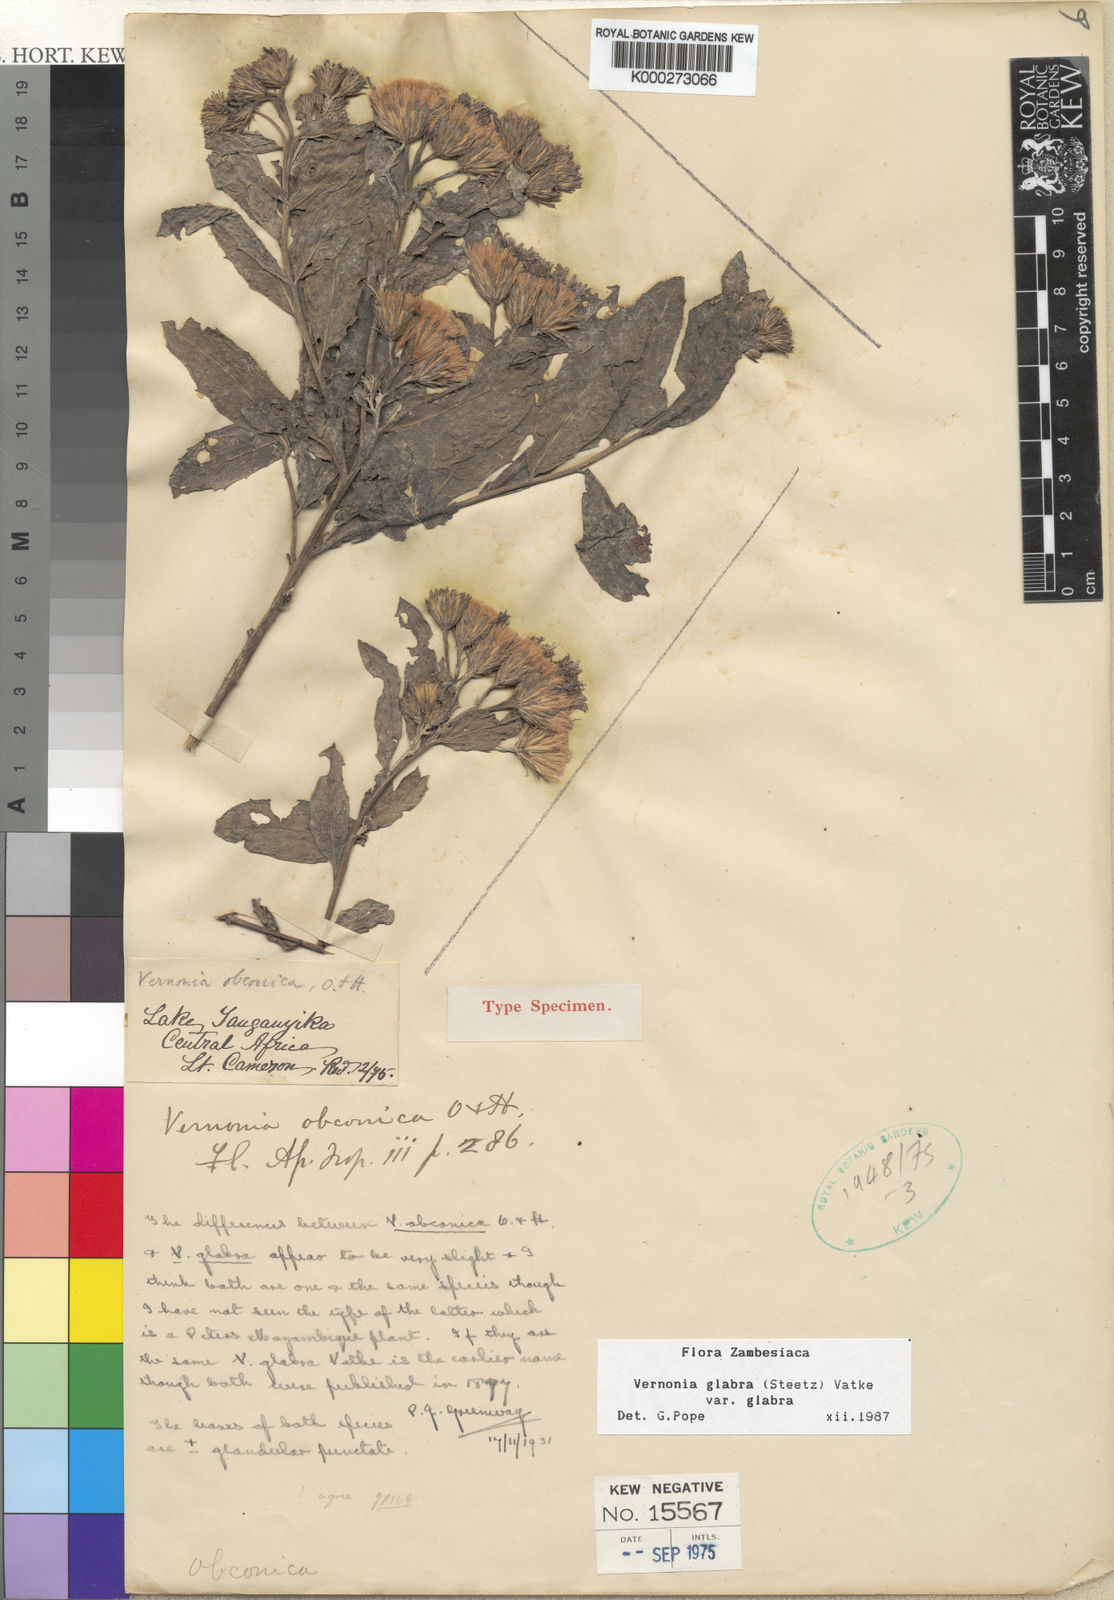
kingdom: Plantae
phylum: Tracheophyta
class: Magnoliopsida
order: Asterales
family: Asteraceae
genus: Linzia
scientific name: Linzia glabra
